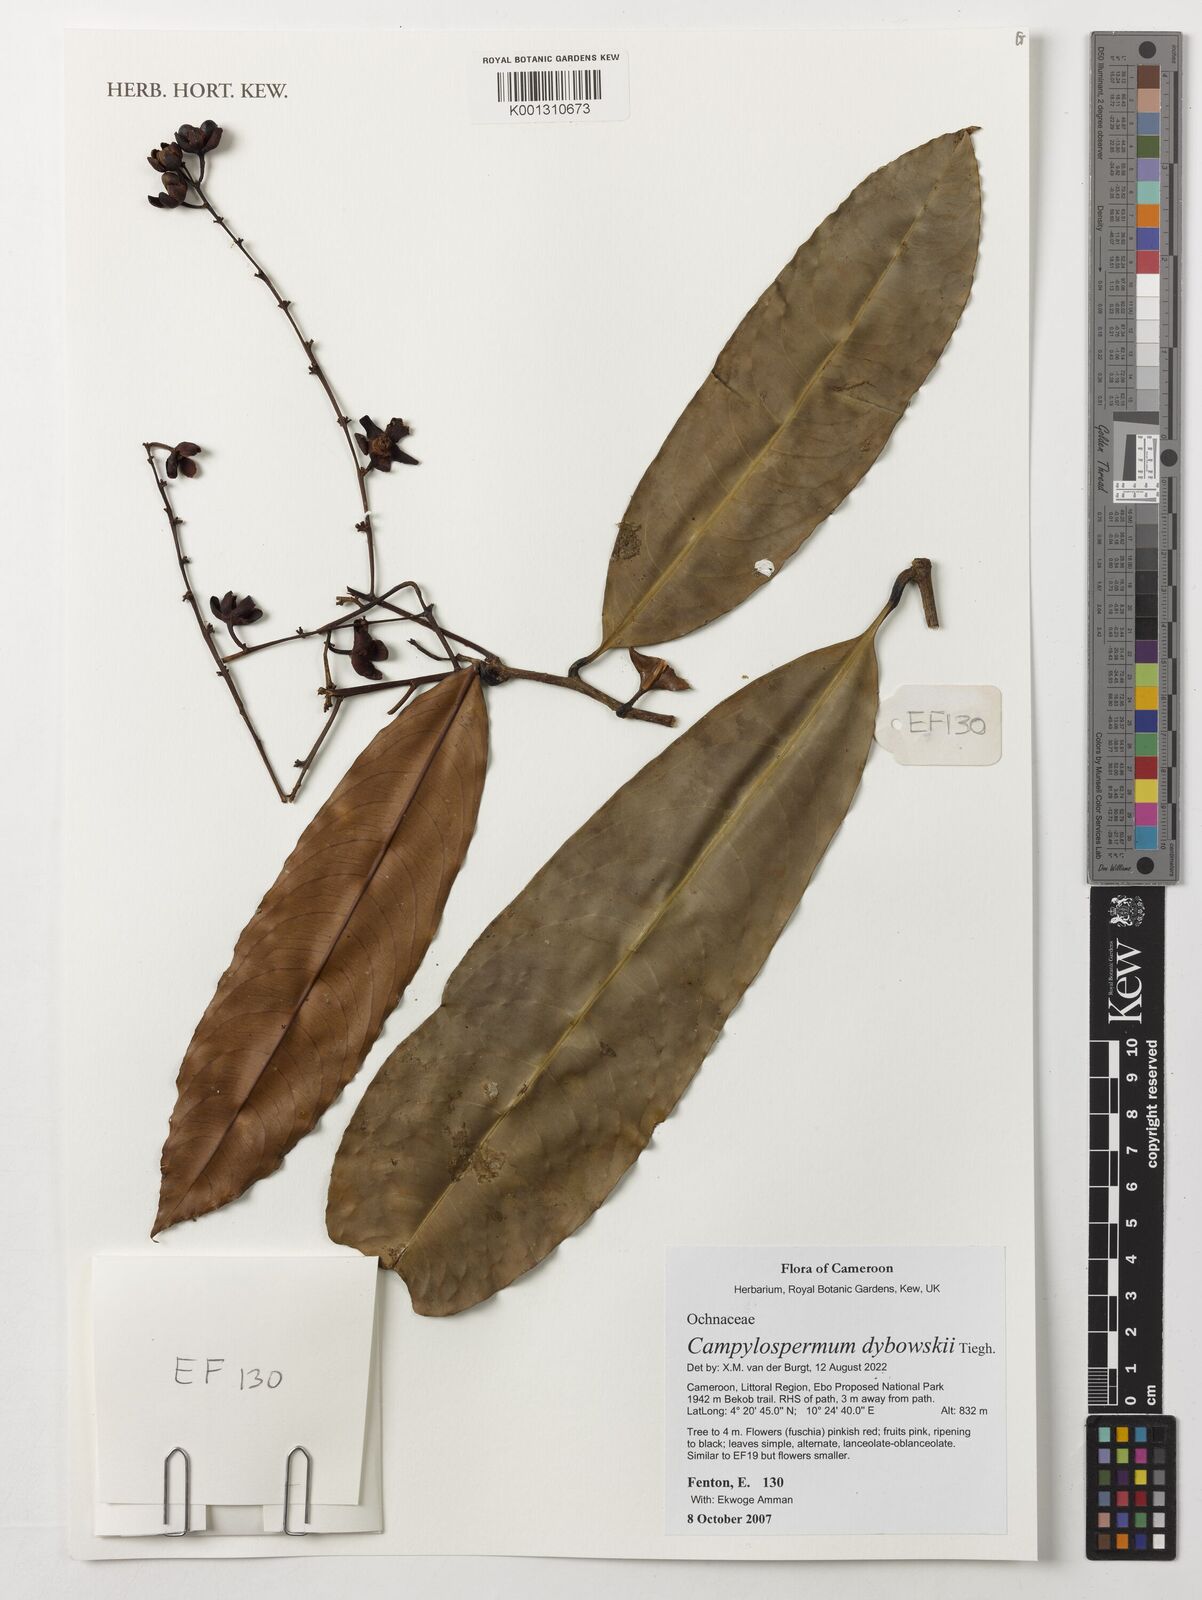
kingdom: Plantae
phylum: Tracheophyta
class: Magnoliopsida
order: Malpighiales
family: Ochnaceae
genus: Campylospermum
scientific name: Campylospermum dybovskii
